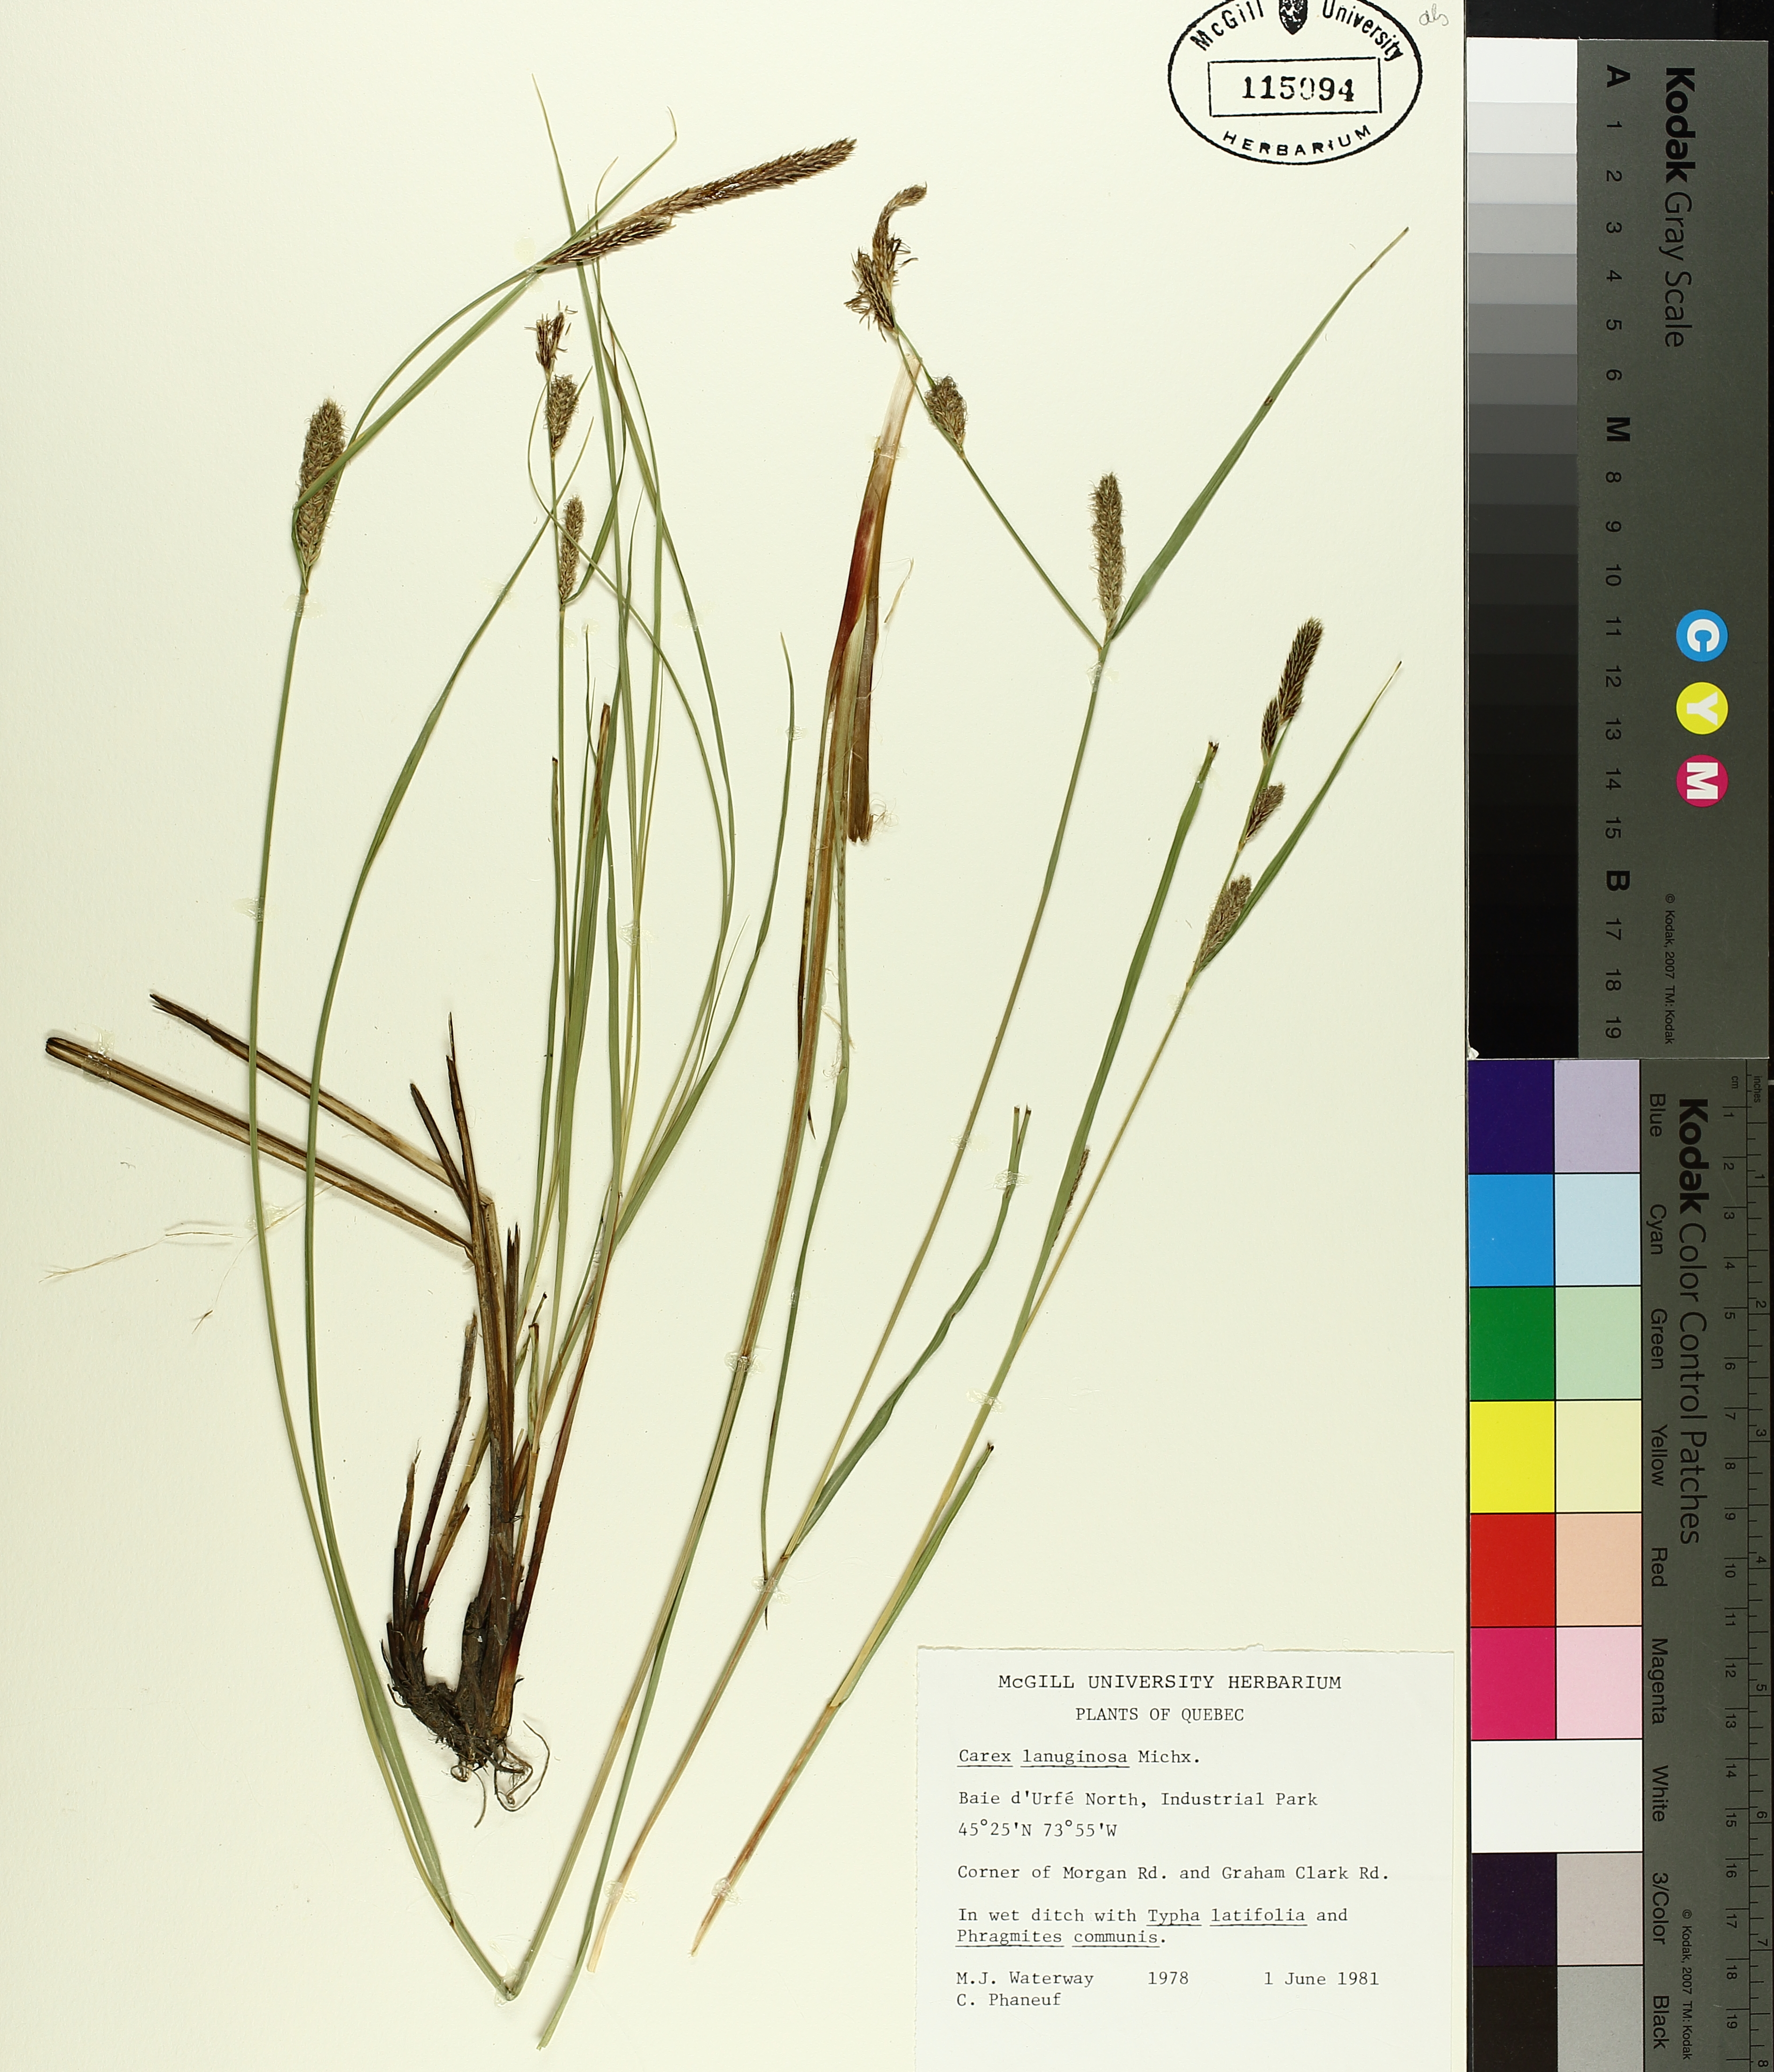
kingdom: Plantae
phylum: Tracheophyta
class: Liliopsida
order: Poales
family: Cyperaceae
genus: Carex
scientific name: Carex pellita
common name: Woolly sedge
